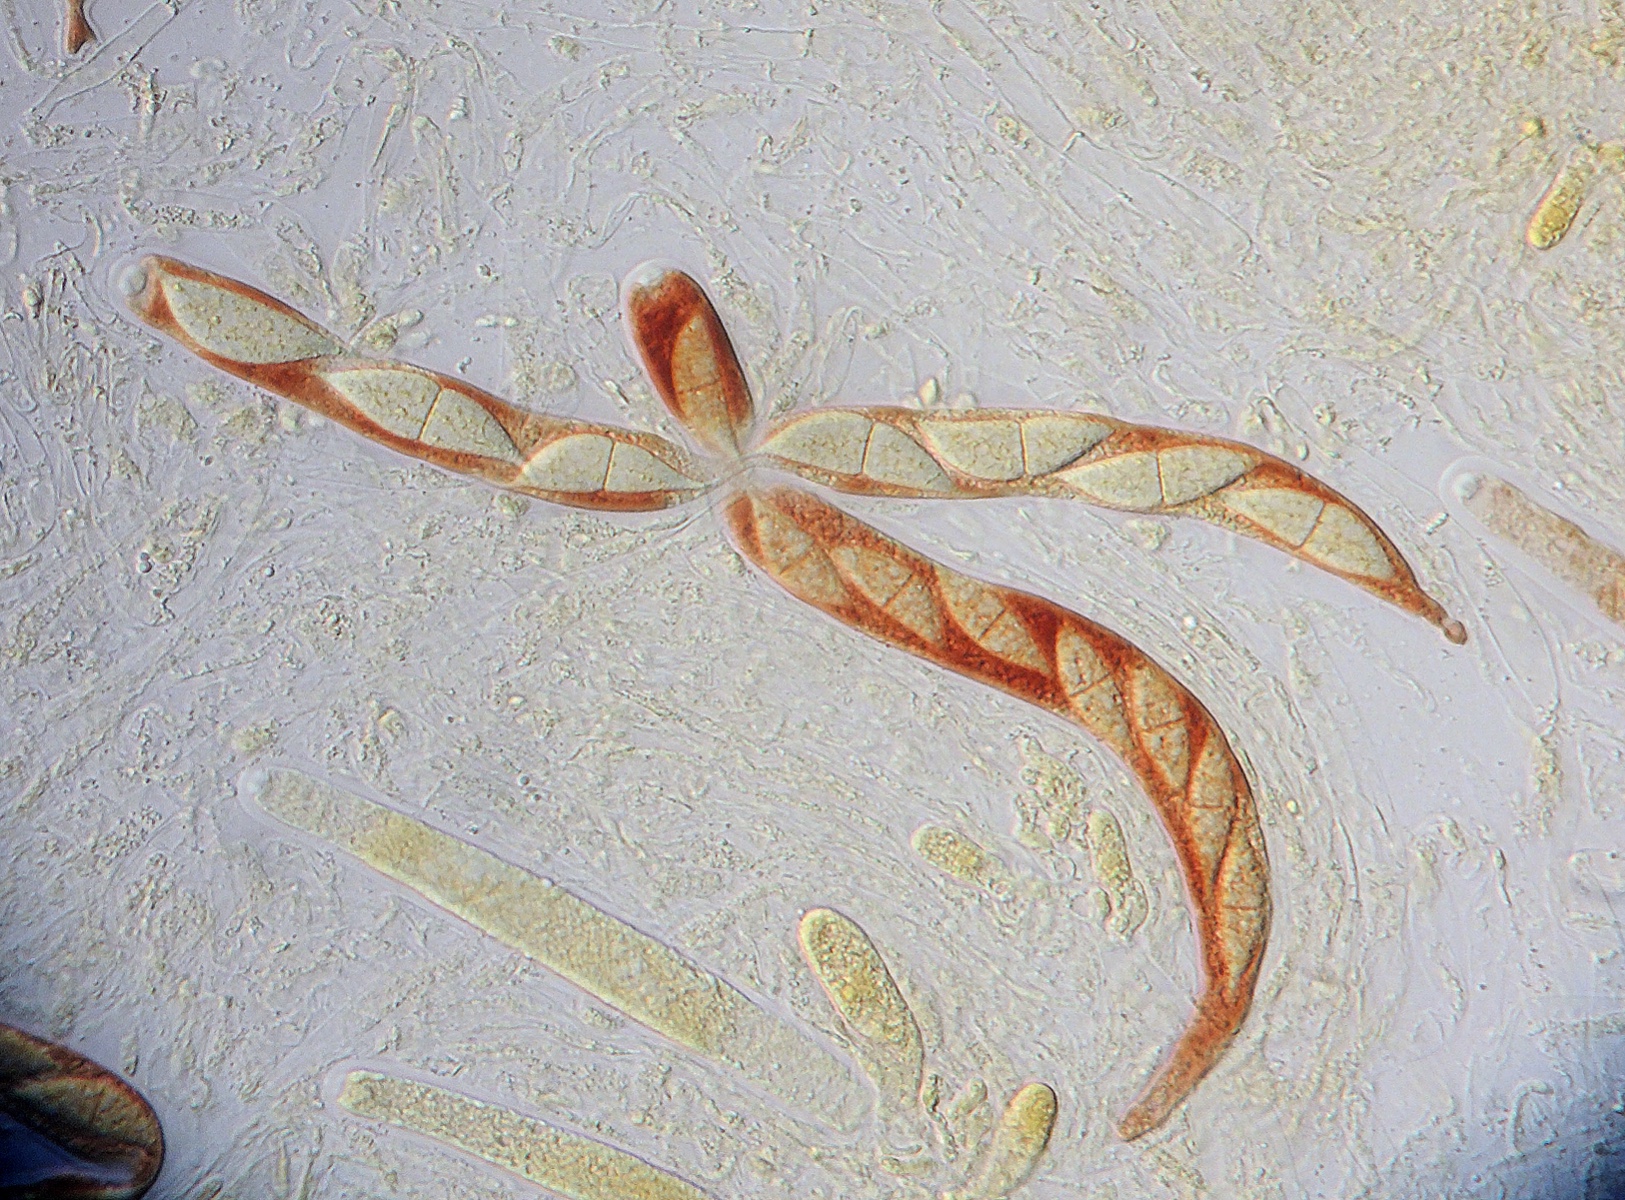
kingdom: Fungi
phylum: Ascomycota
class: Sordariomycetes
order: Amphisphaeriales
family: Amphisphaeriaceae
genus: Ceriospora
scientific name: Ceriospora ribis
